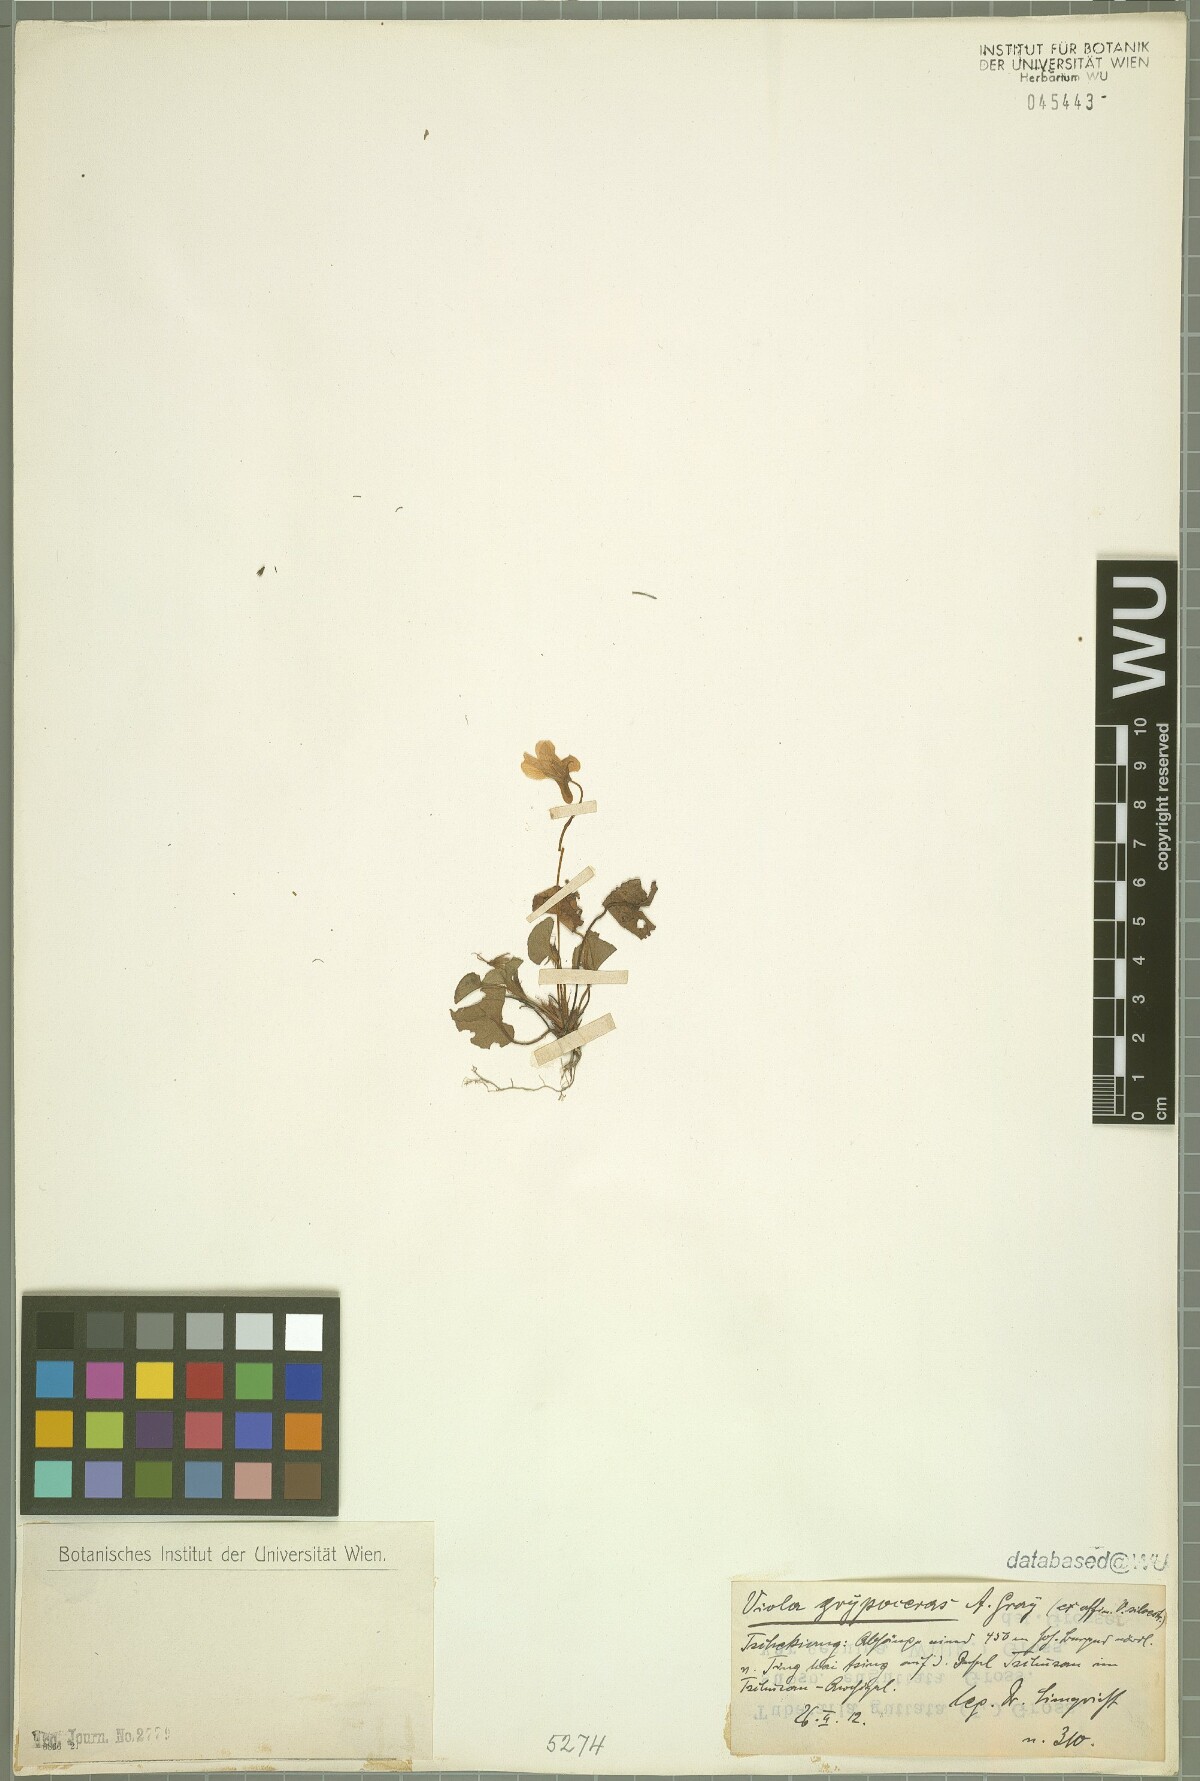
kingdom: Plantae
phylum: Tracheophyta
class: Magnoliopsida
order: Malpighiales
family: Violaceae
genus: Viola
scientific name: Viola grypoceras
